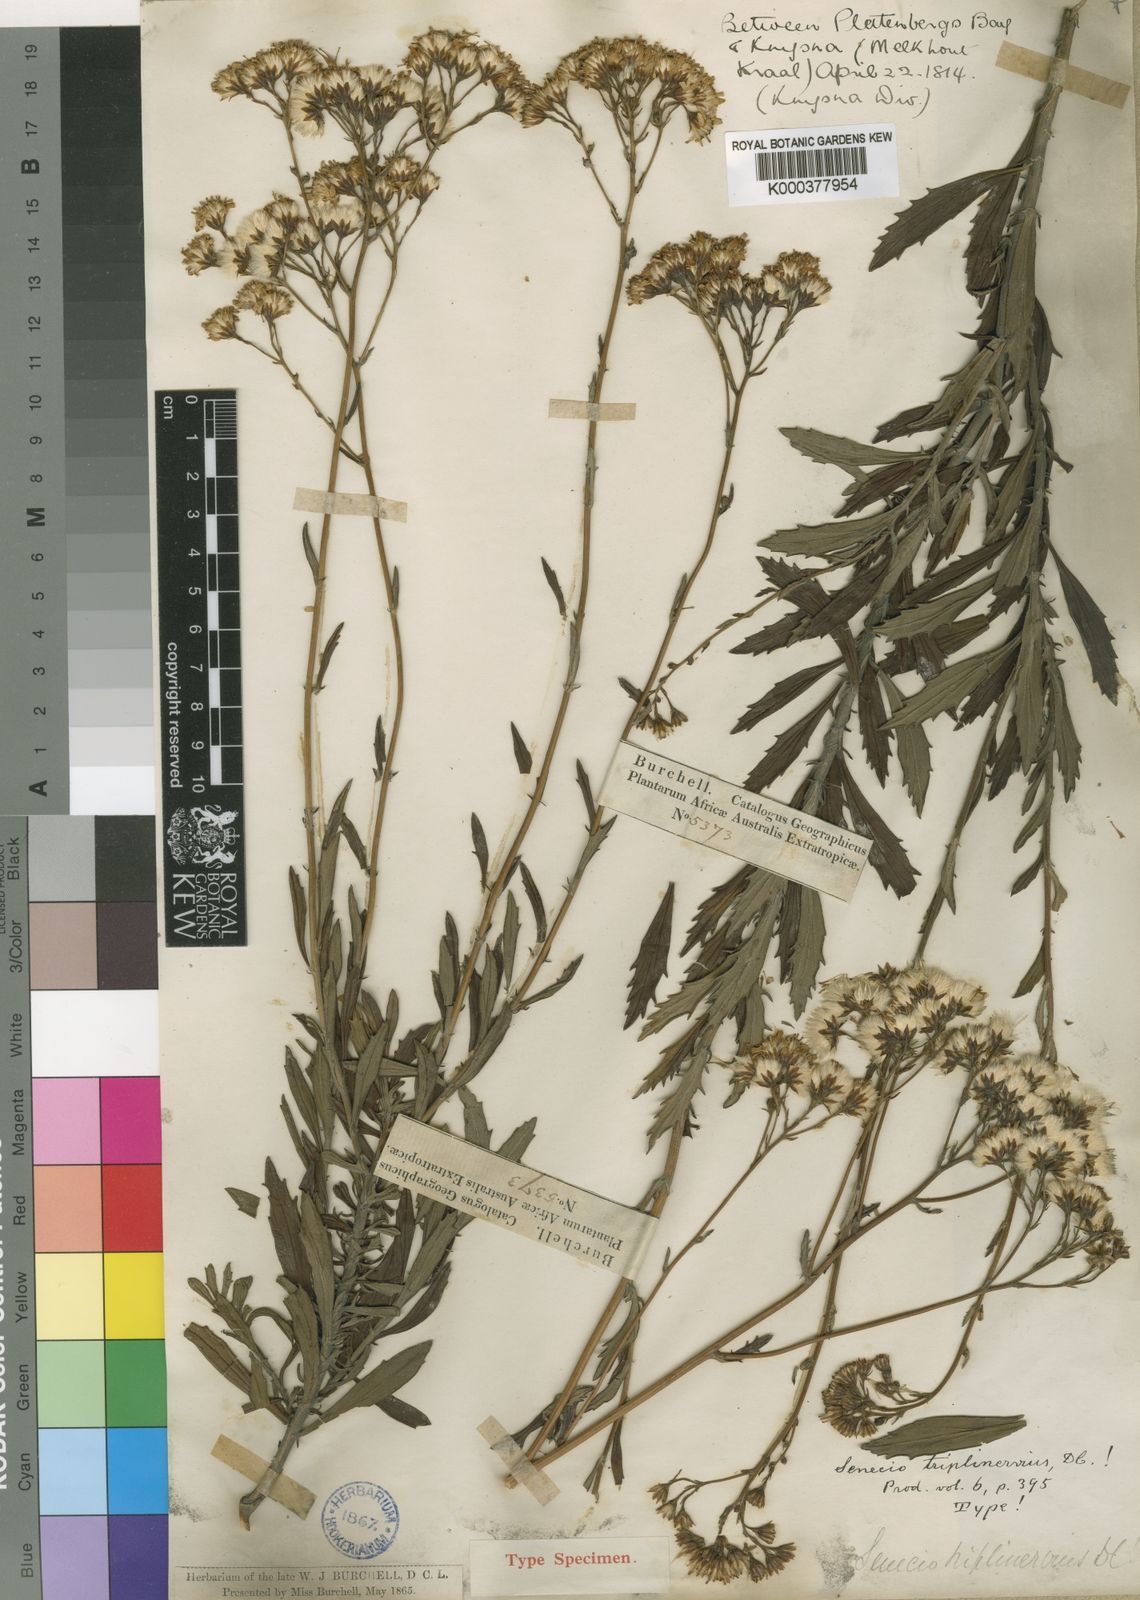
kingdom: Plantae
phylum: Tracheophyta
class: Magnoliopsida
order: Asterales
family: Asteraceae
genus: Senecio
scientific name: Senecio triplinervius
